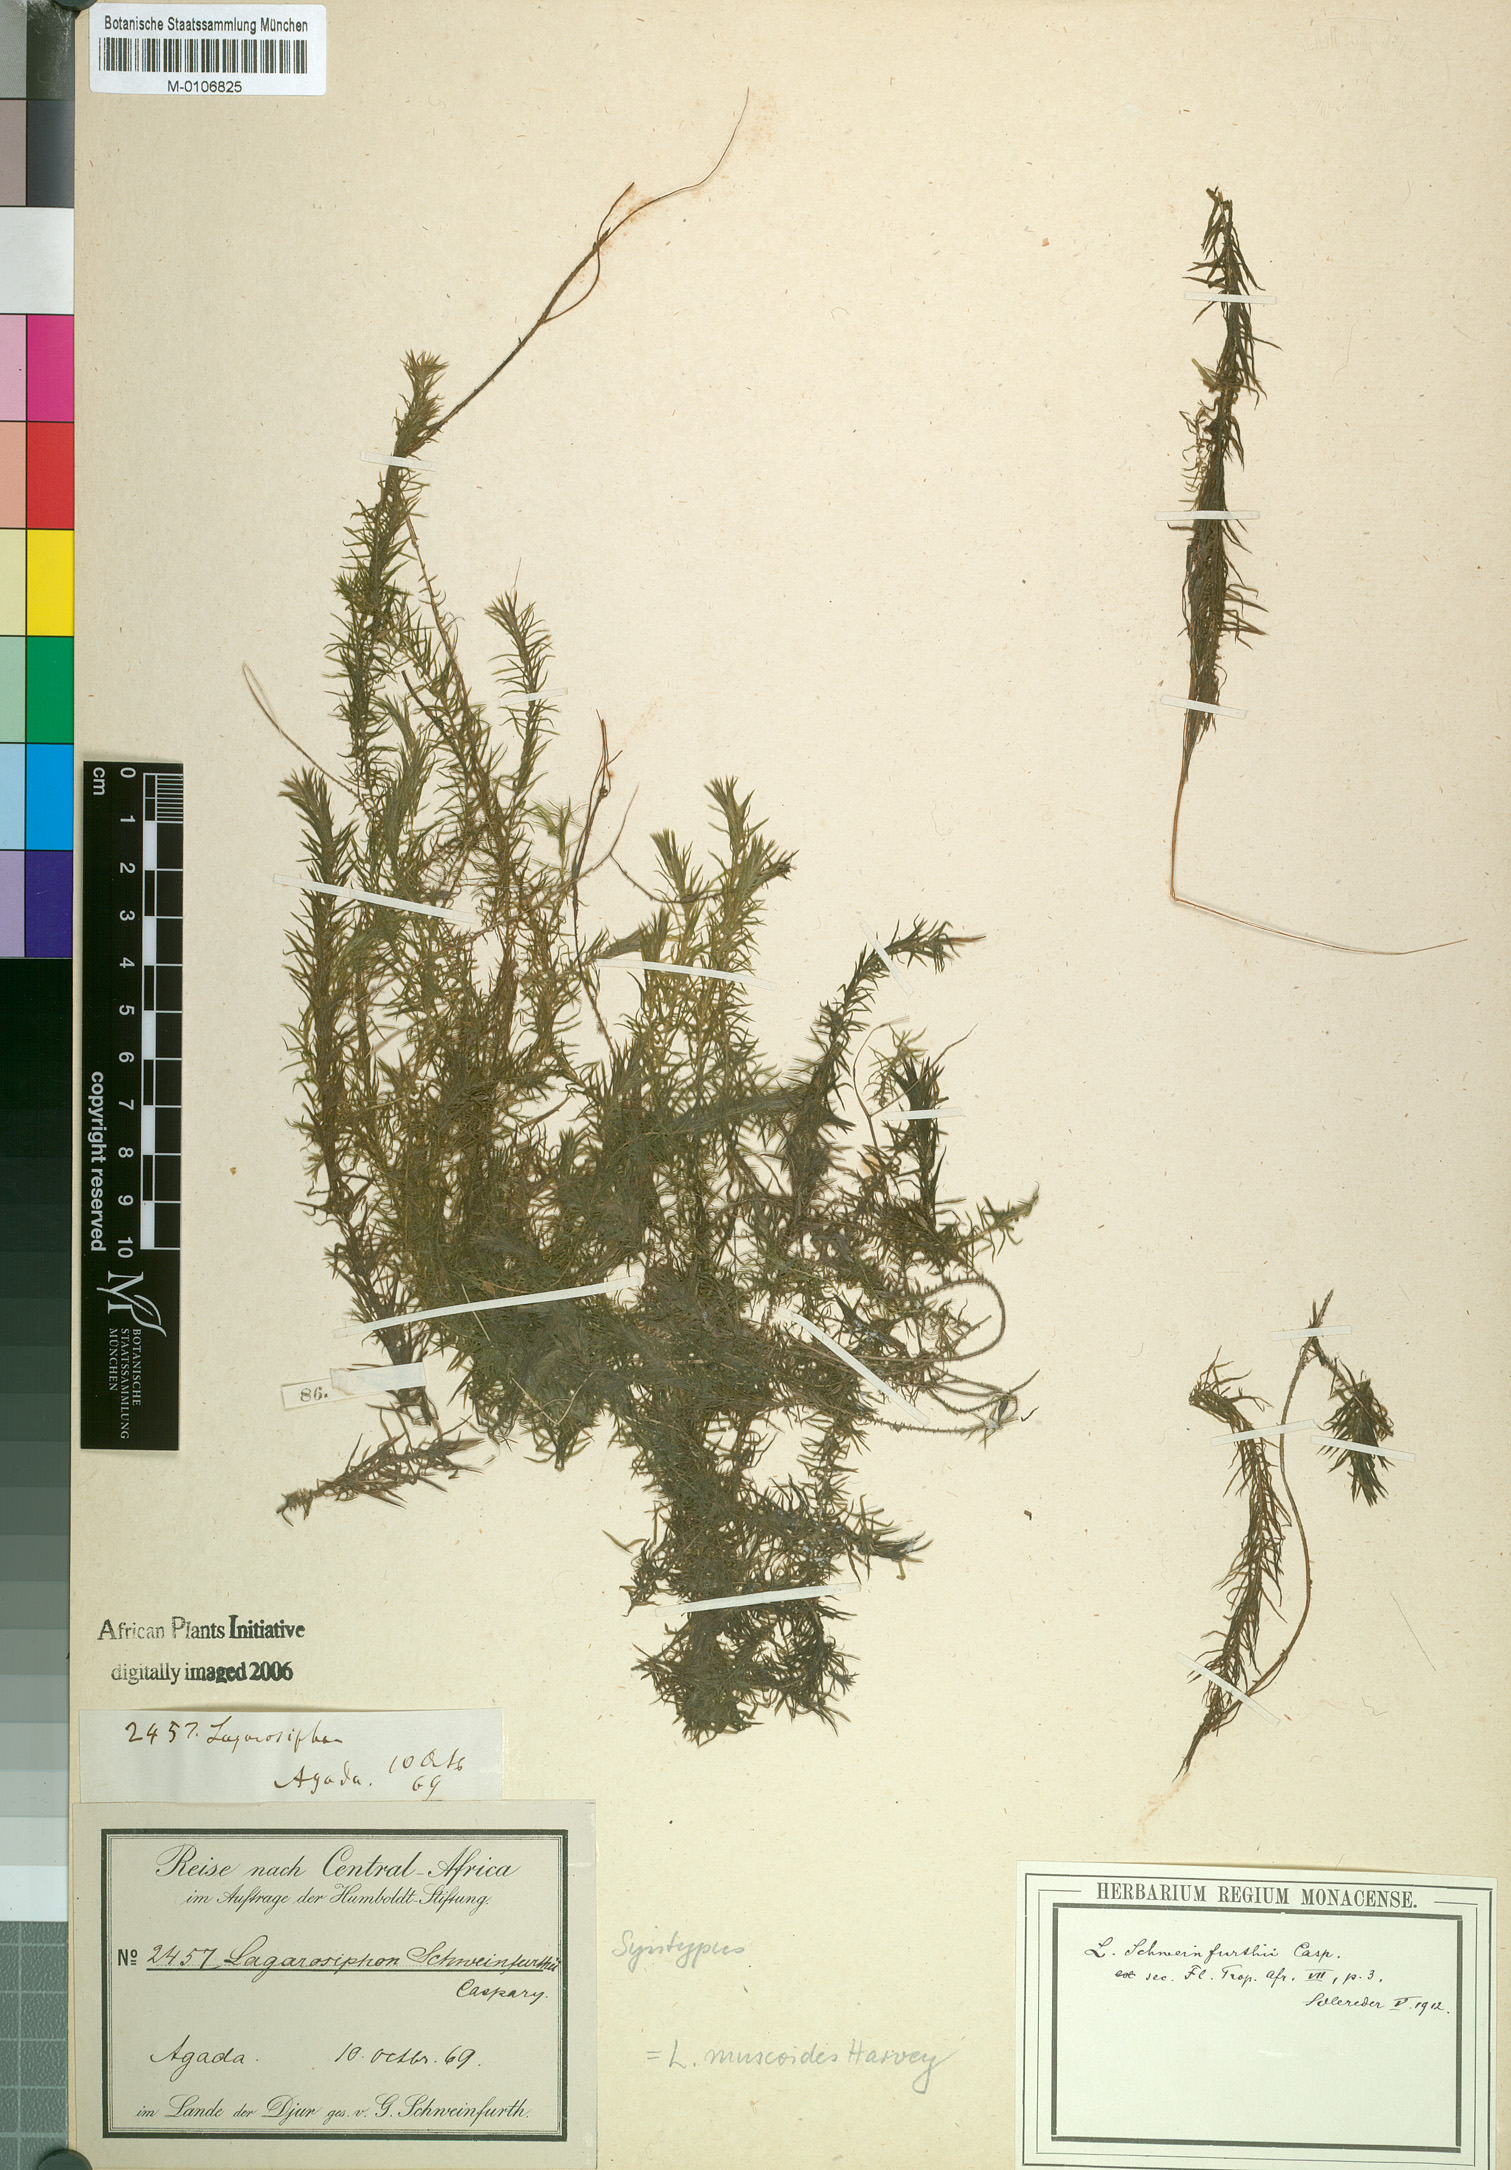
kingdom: Plantae
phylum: Tracheophyta
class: Liliopsida
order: Alismatales
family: Hydrocharitaceae
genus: Lagarosiphon
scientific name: Lagarosiphon muscoides
